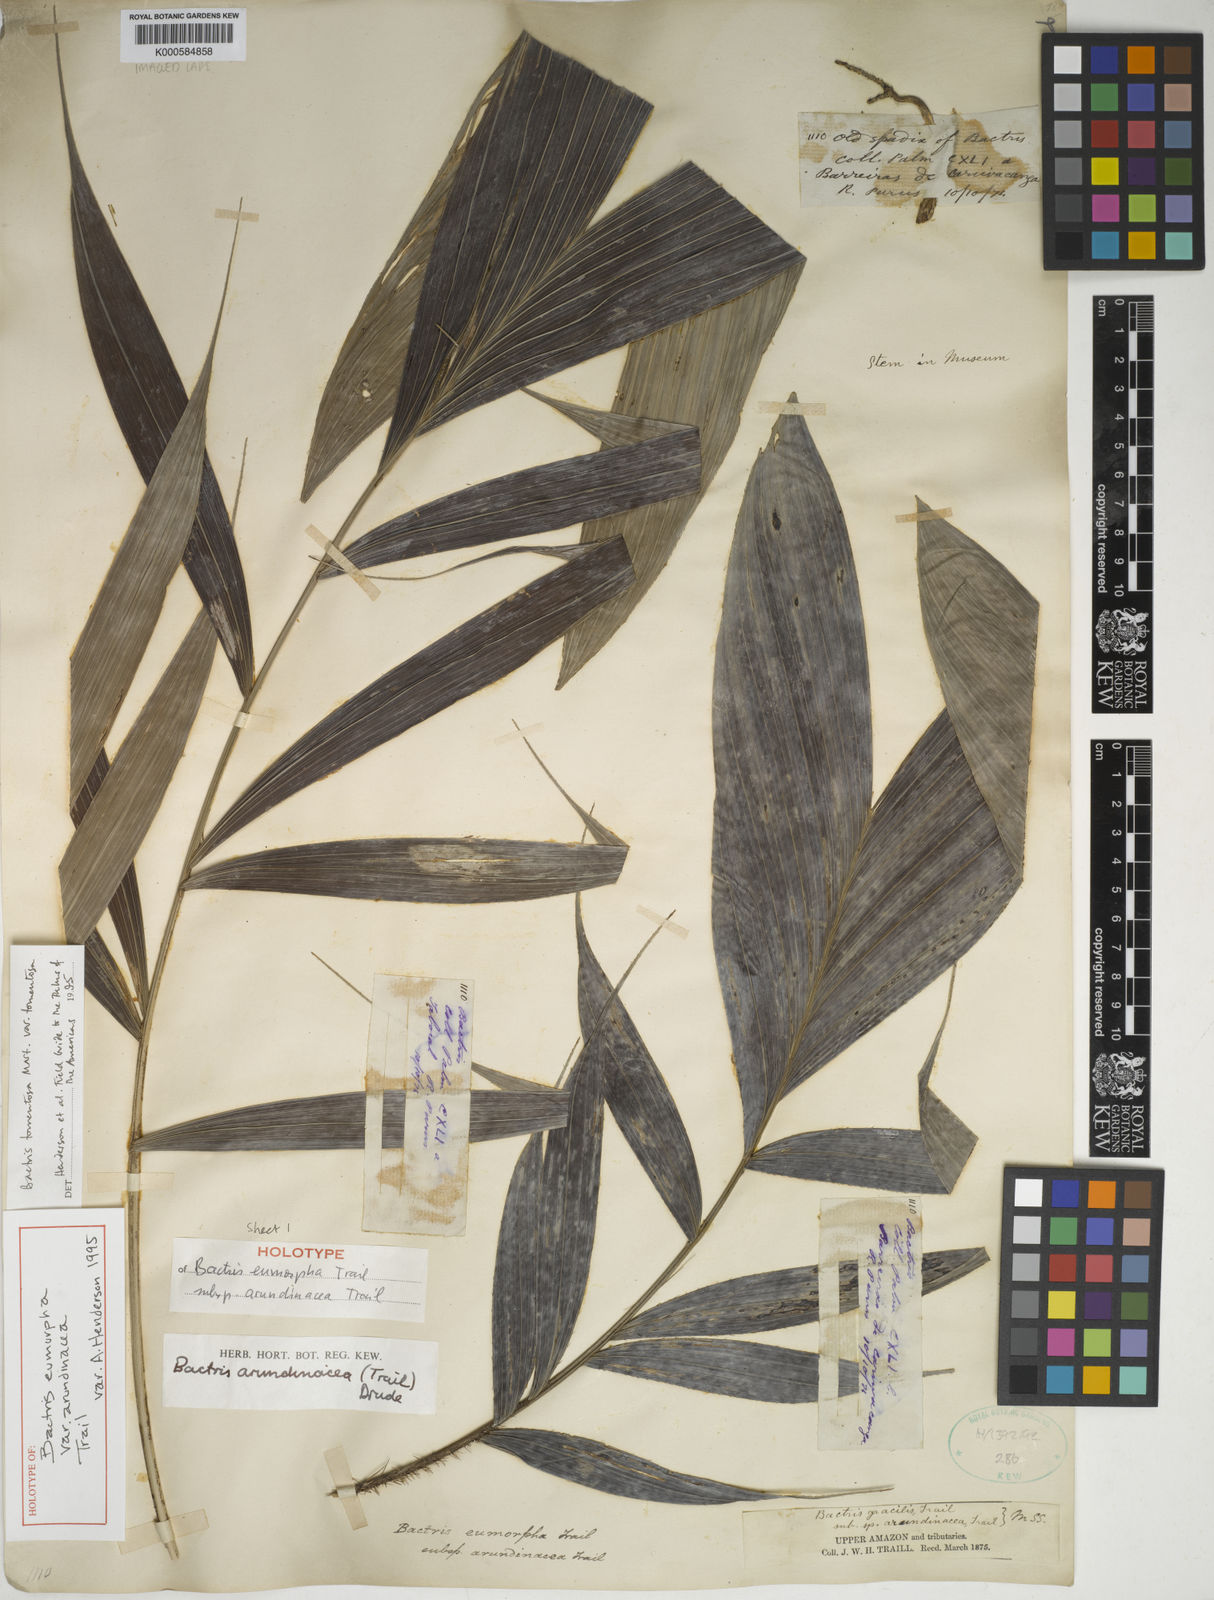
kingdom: Plantae
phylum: Tracheophyta
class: Liliopsida
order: Arecales
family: Arecaceae
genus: Bactris
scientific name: Bactris tomentosa
